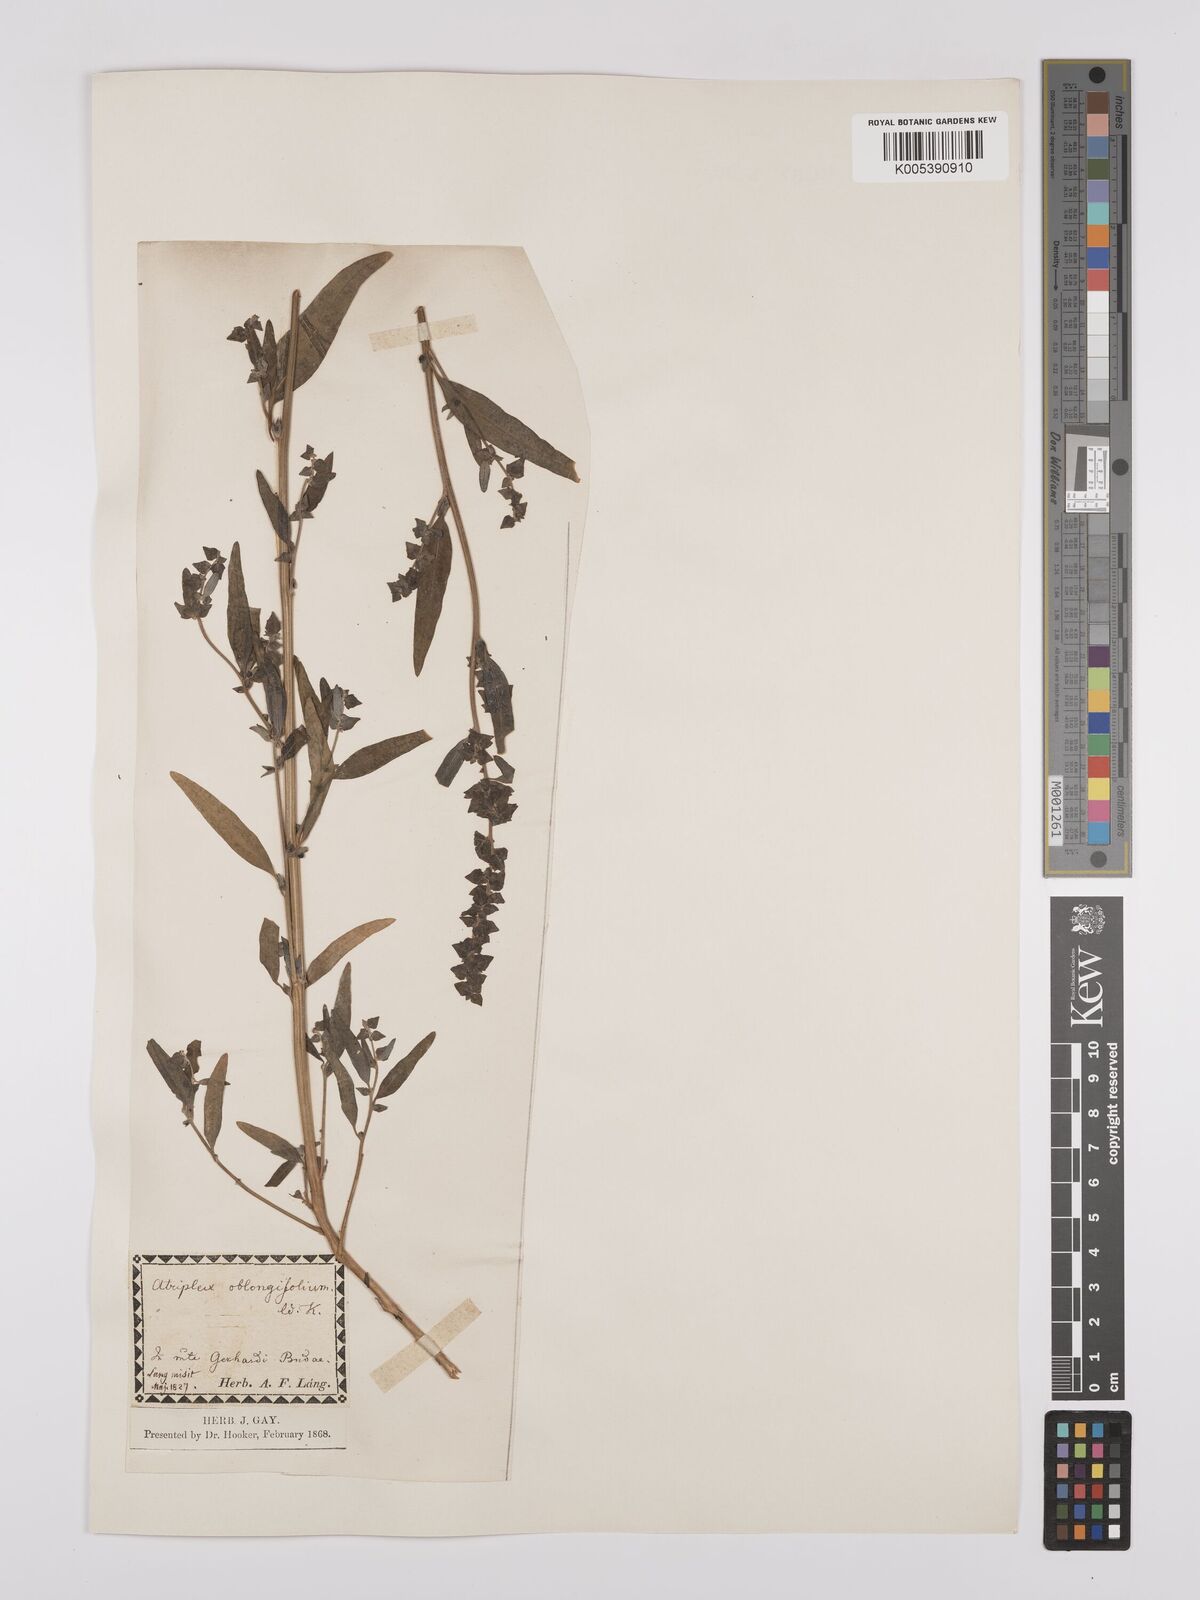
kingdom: Plantae
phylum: Tracheophyta
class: Magnoliopsida
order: Caryophyllales
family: Amaranthaceae
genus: Atriplex
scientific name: Atriplex
